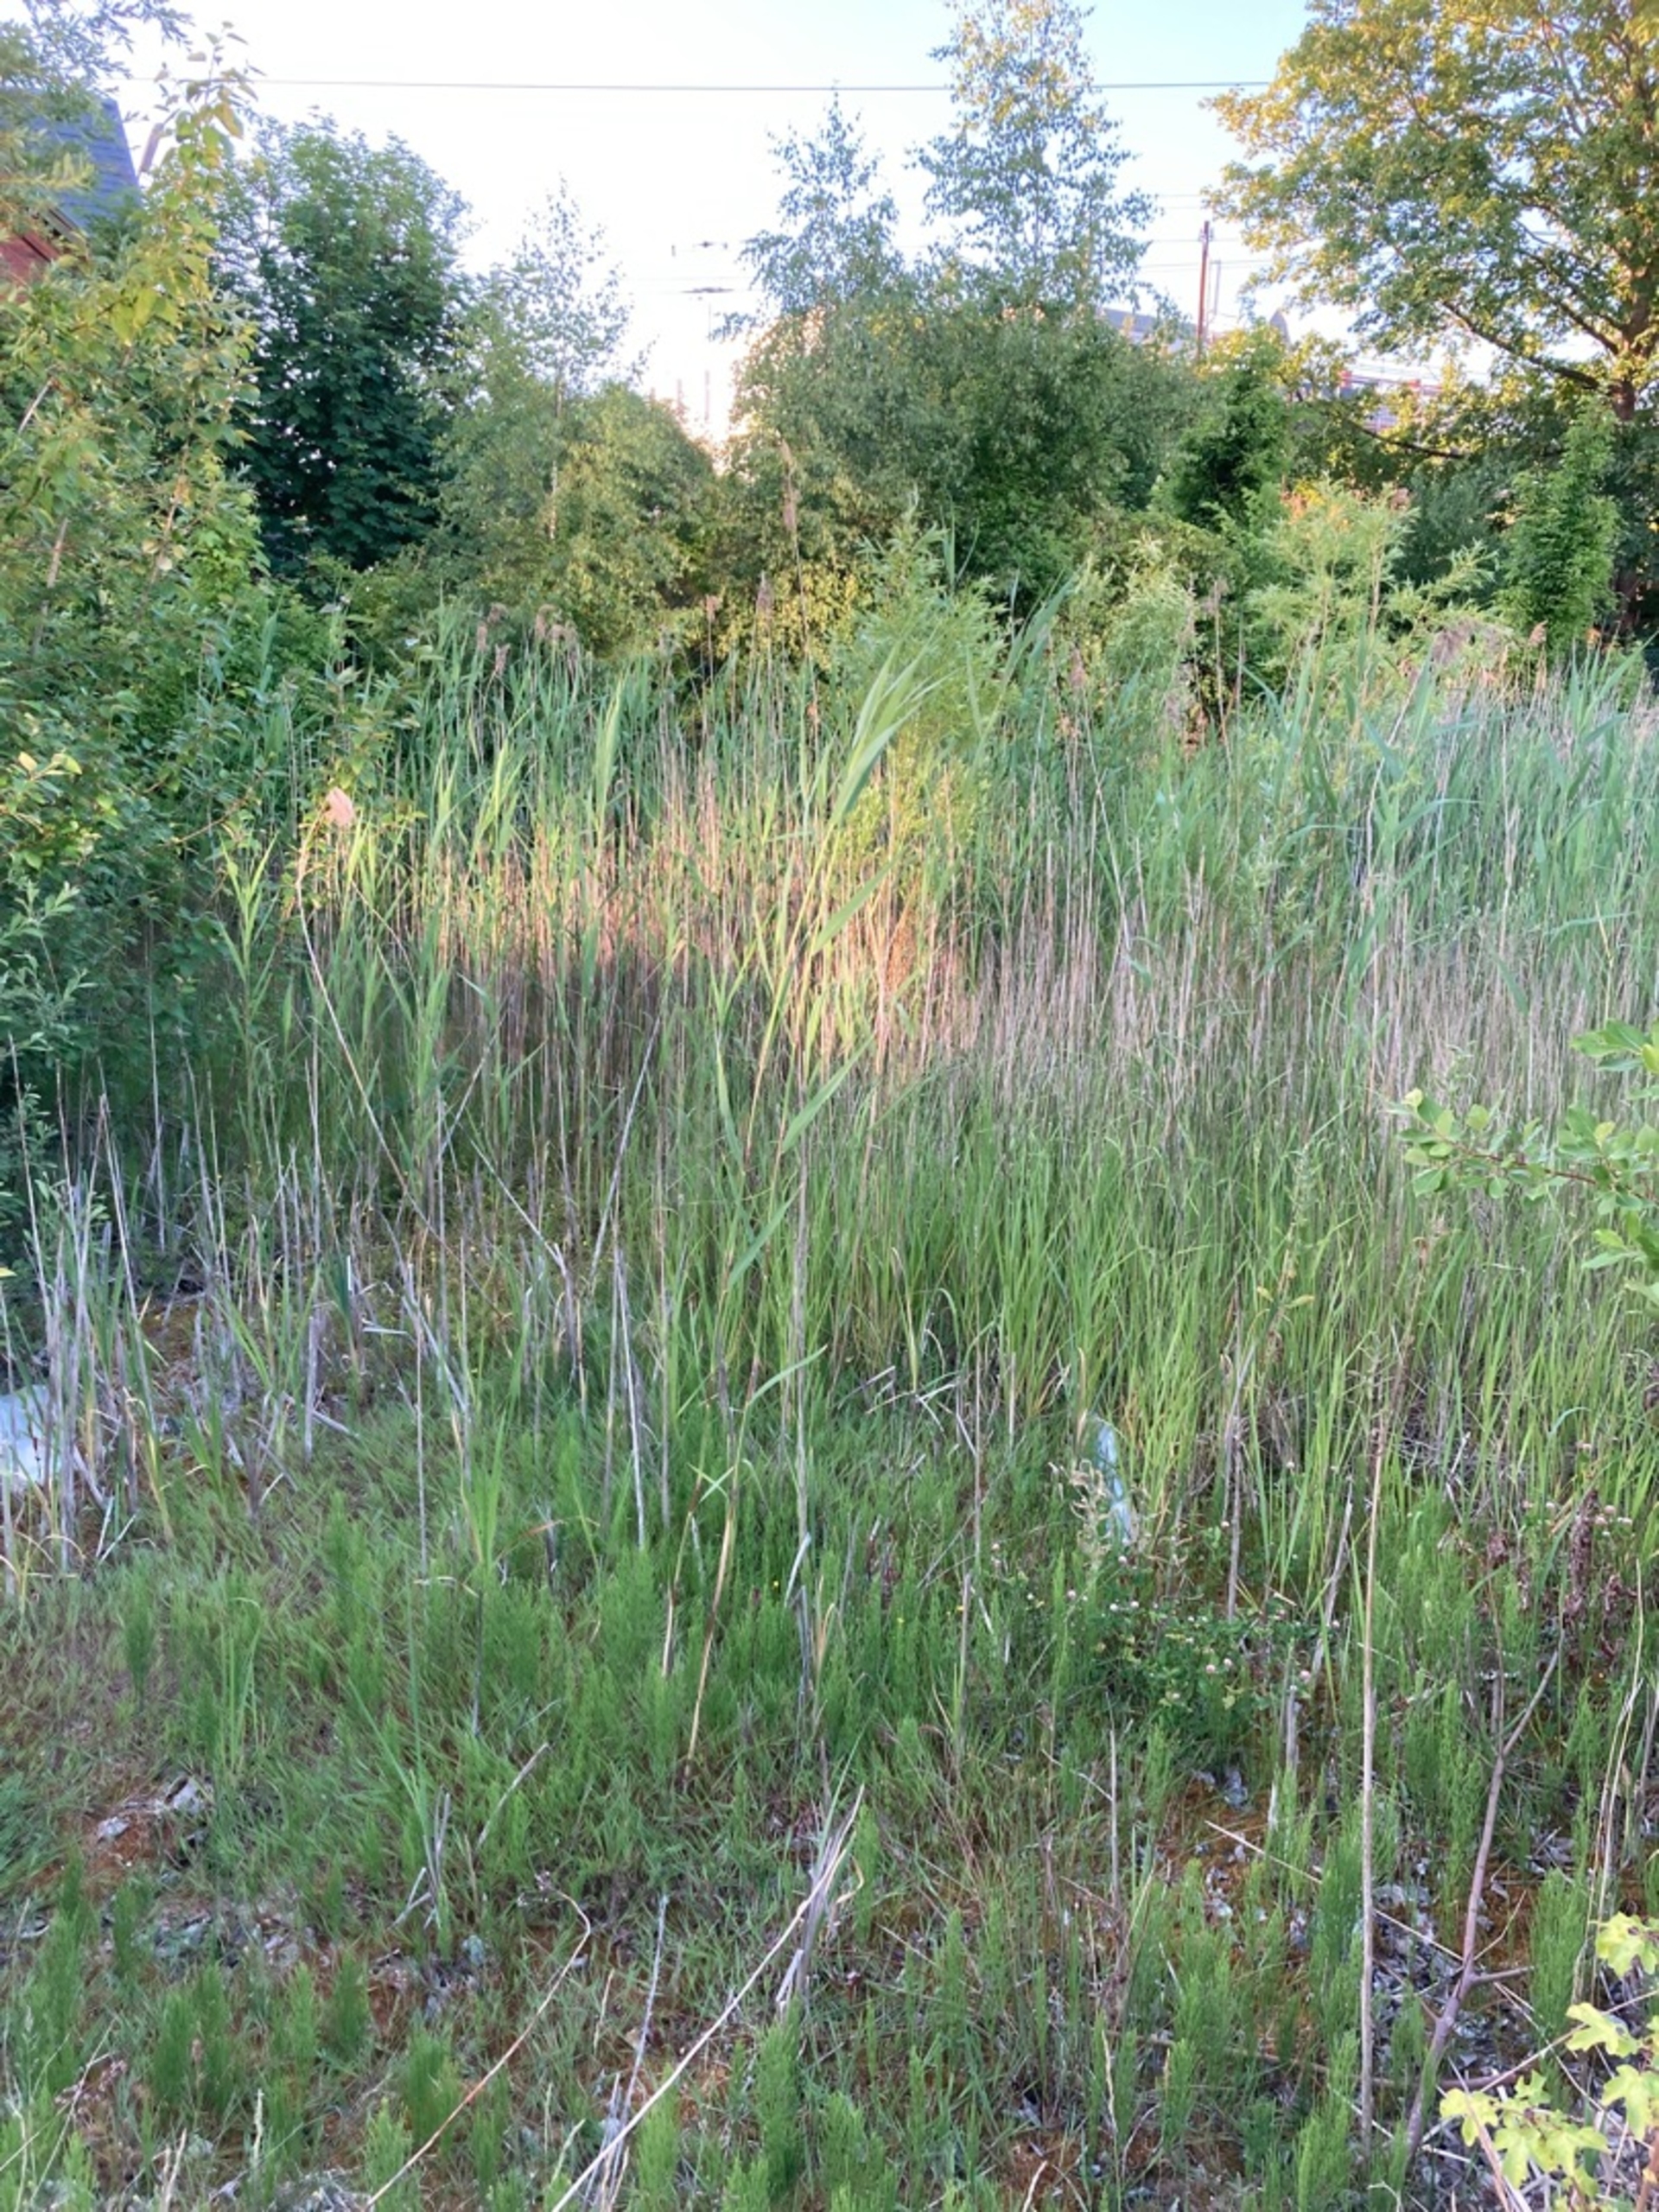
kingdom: Plantae
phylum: Tracheophyta
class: Liliopsida
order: Poales
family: Poaceae
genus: Phragmites
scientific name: Phragmites australis
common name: Tagrør
